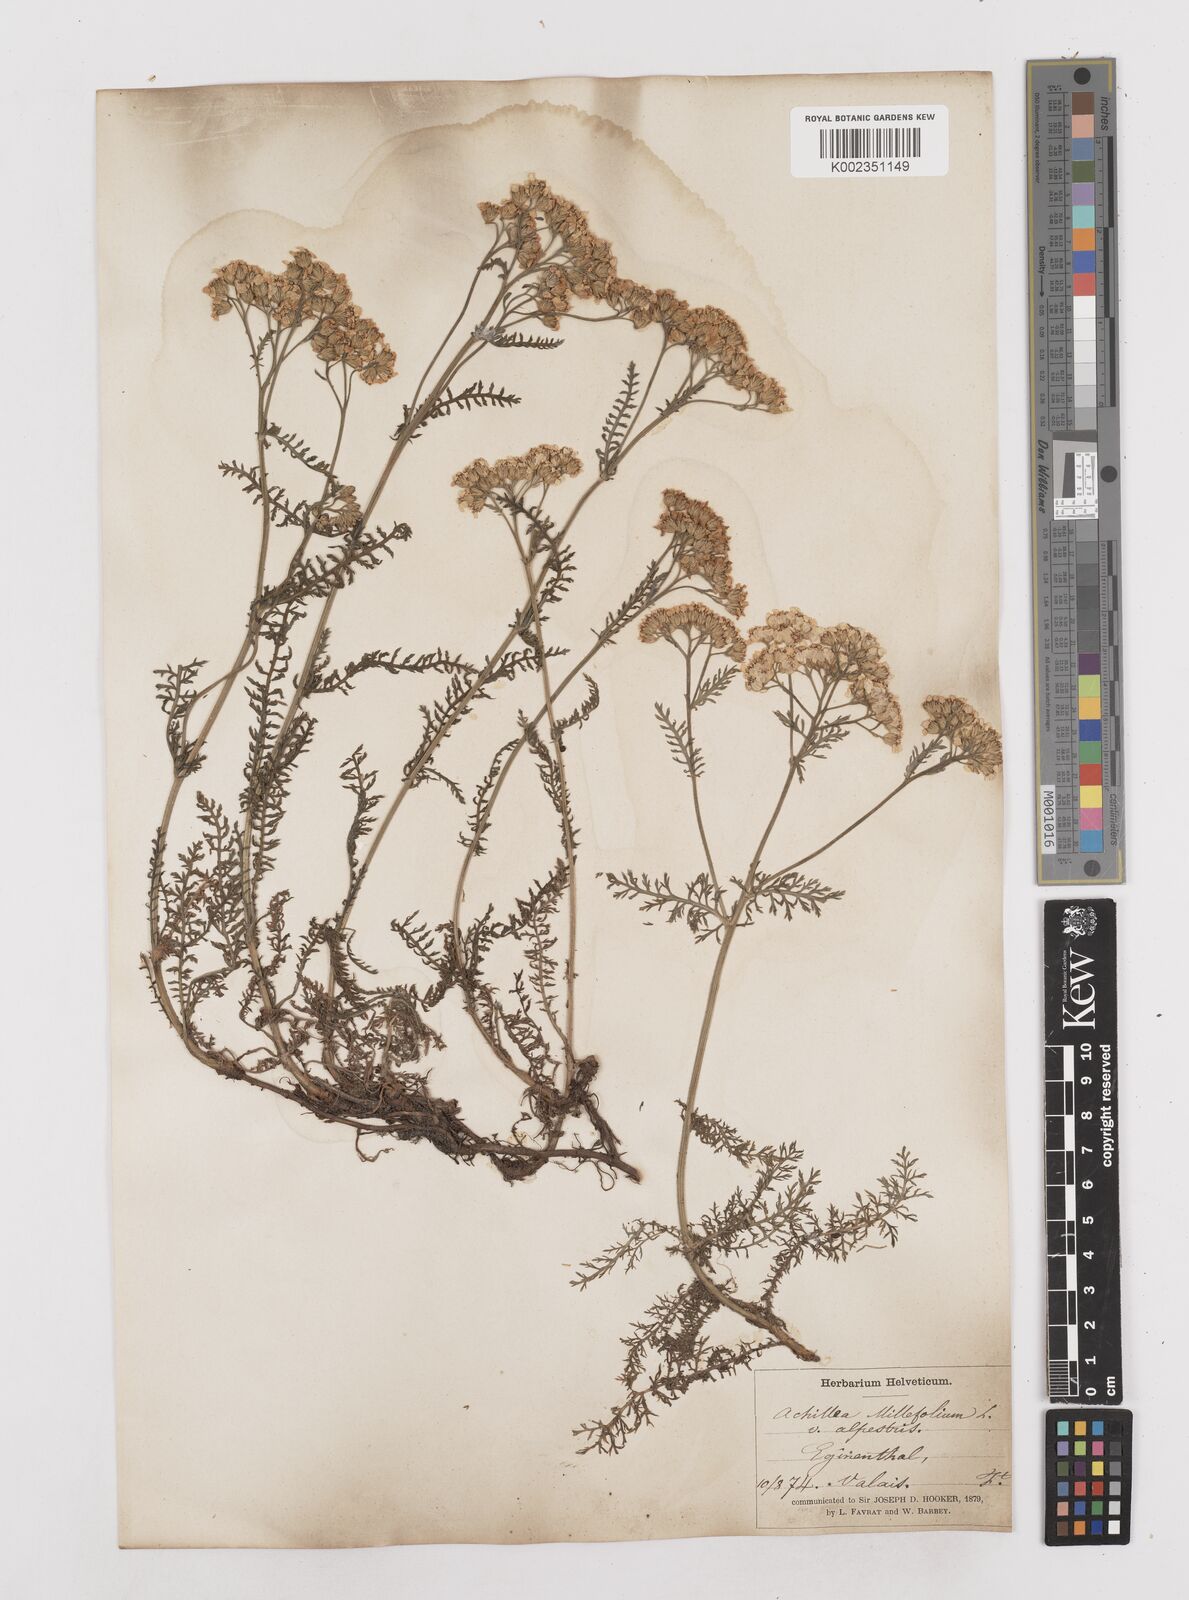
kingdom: Plantae
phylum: Tracheophyta
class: Magnoliopsida
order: Asterales
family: Asteraceae
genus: Achillea
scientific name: Achillea millefolium
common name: Yarrow
